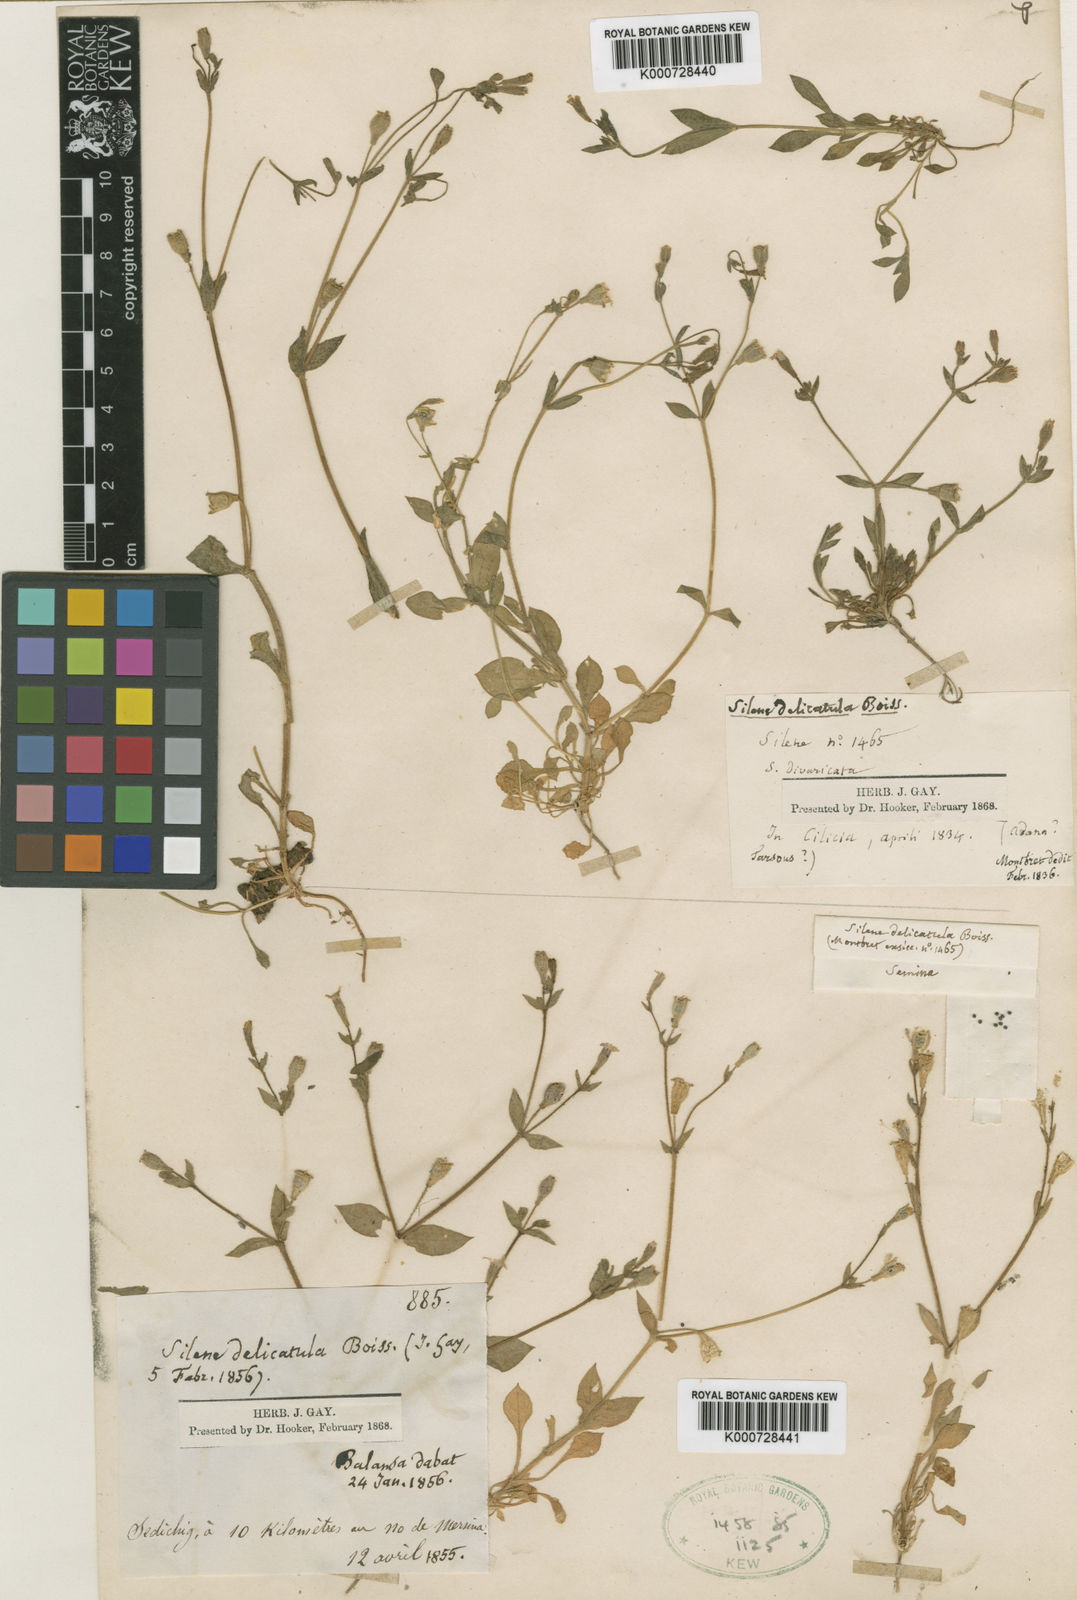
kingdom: Plantae
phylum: Tracheophyta
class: Magnoliopsida
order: Caryophyllales
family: Caryophyllaceae
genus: Silene
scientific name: Silene delicatula
